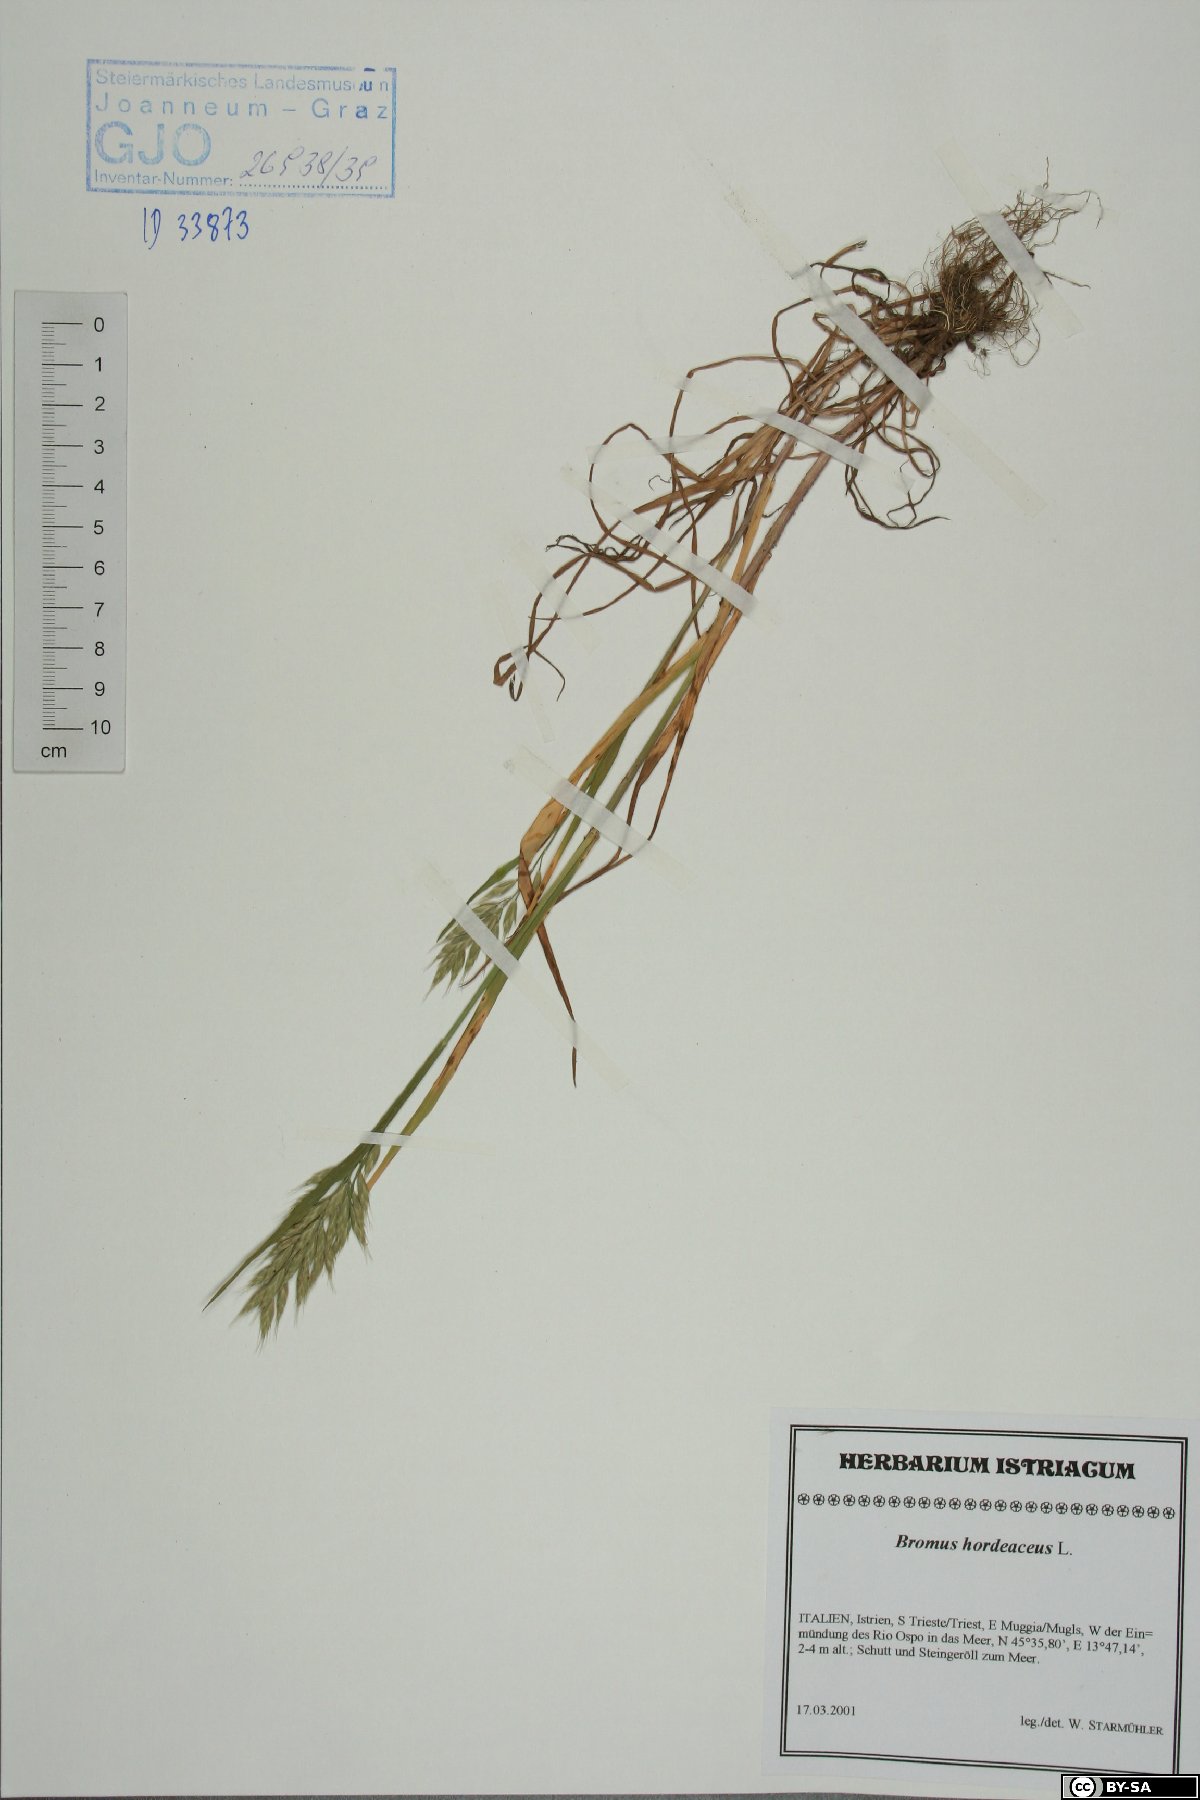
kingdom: Plantae
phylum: Tracheophyta
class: Liliopsida
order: Poales
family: Poaceae
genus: Bromus
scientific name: Bromus hordeaceus
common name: Soft brome
